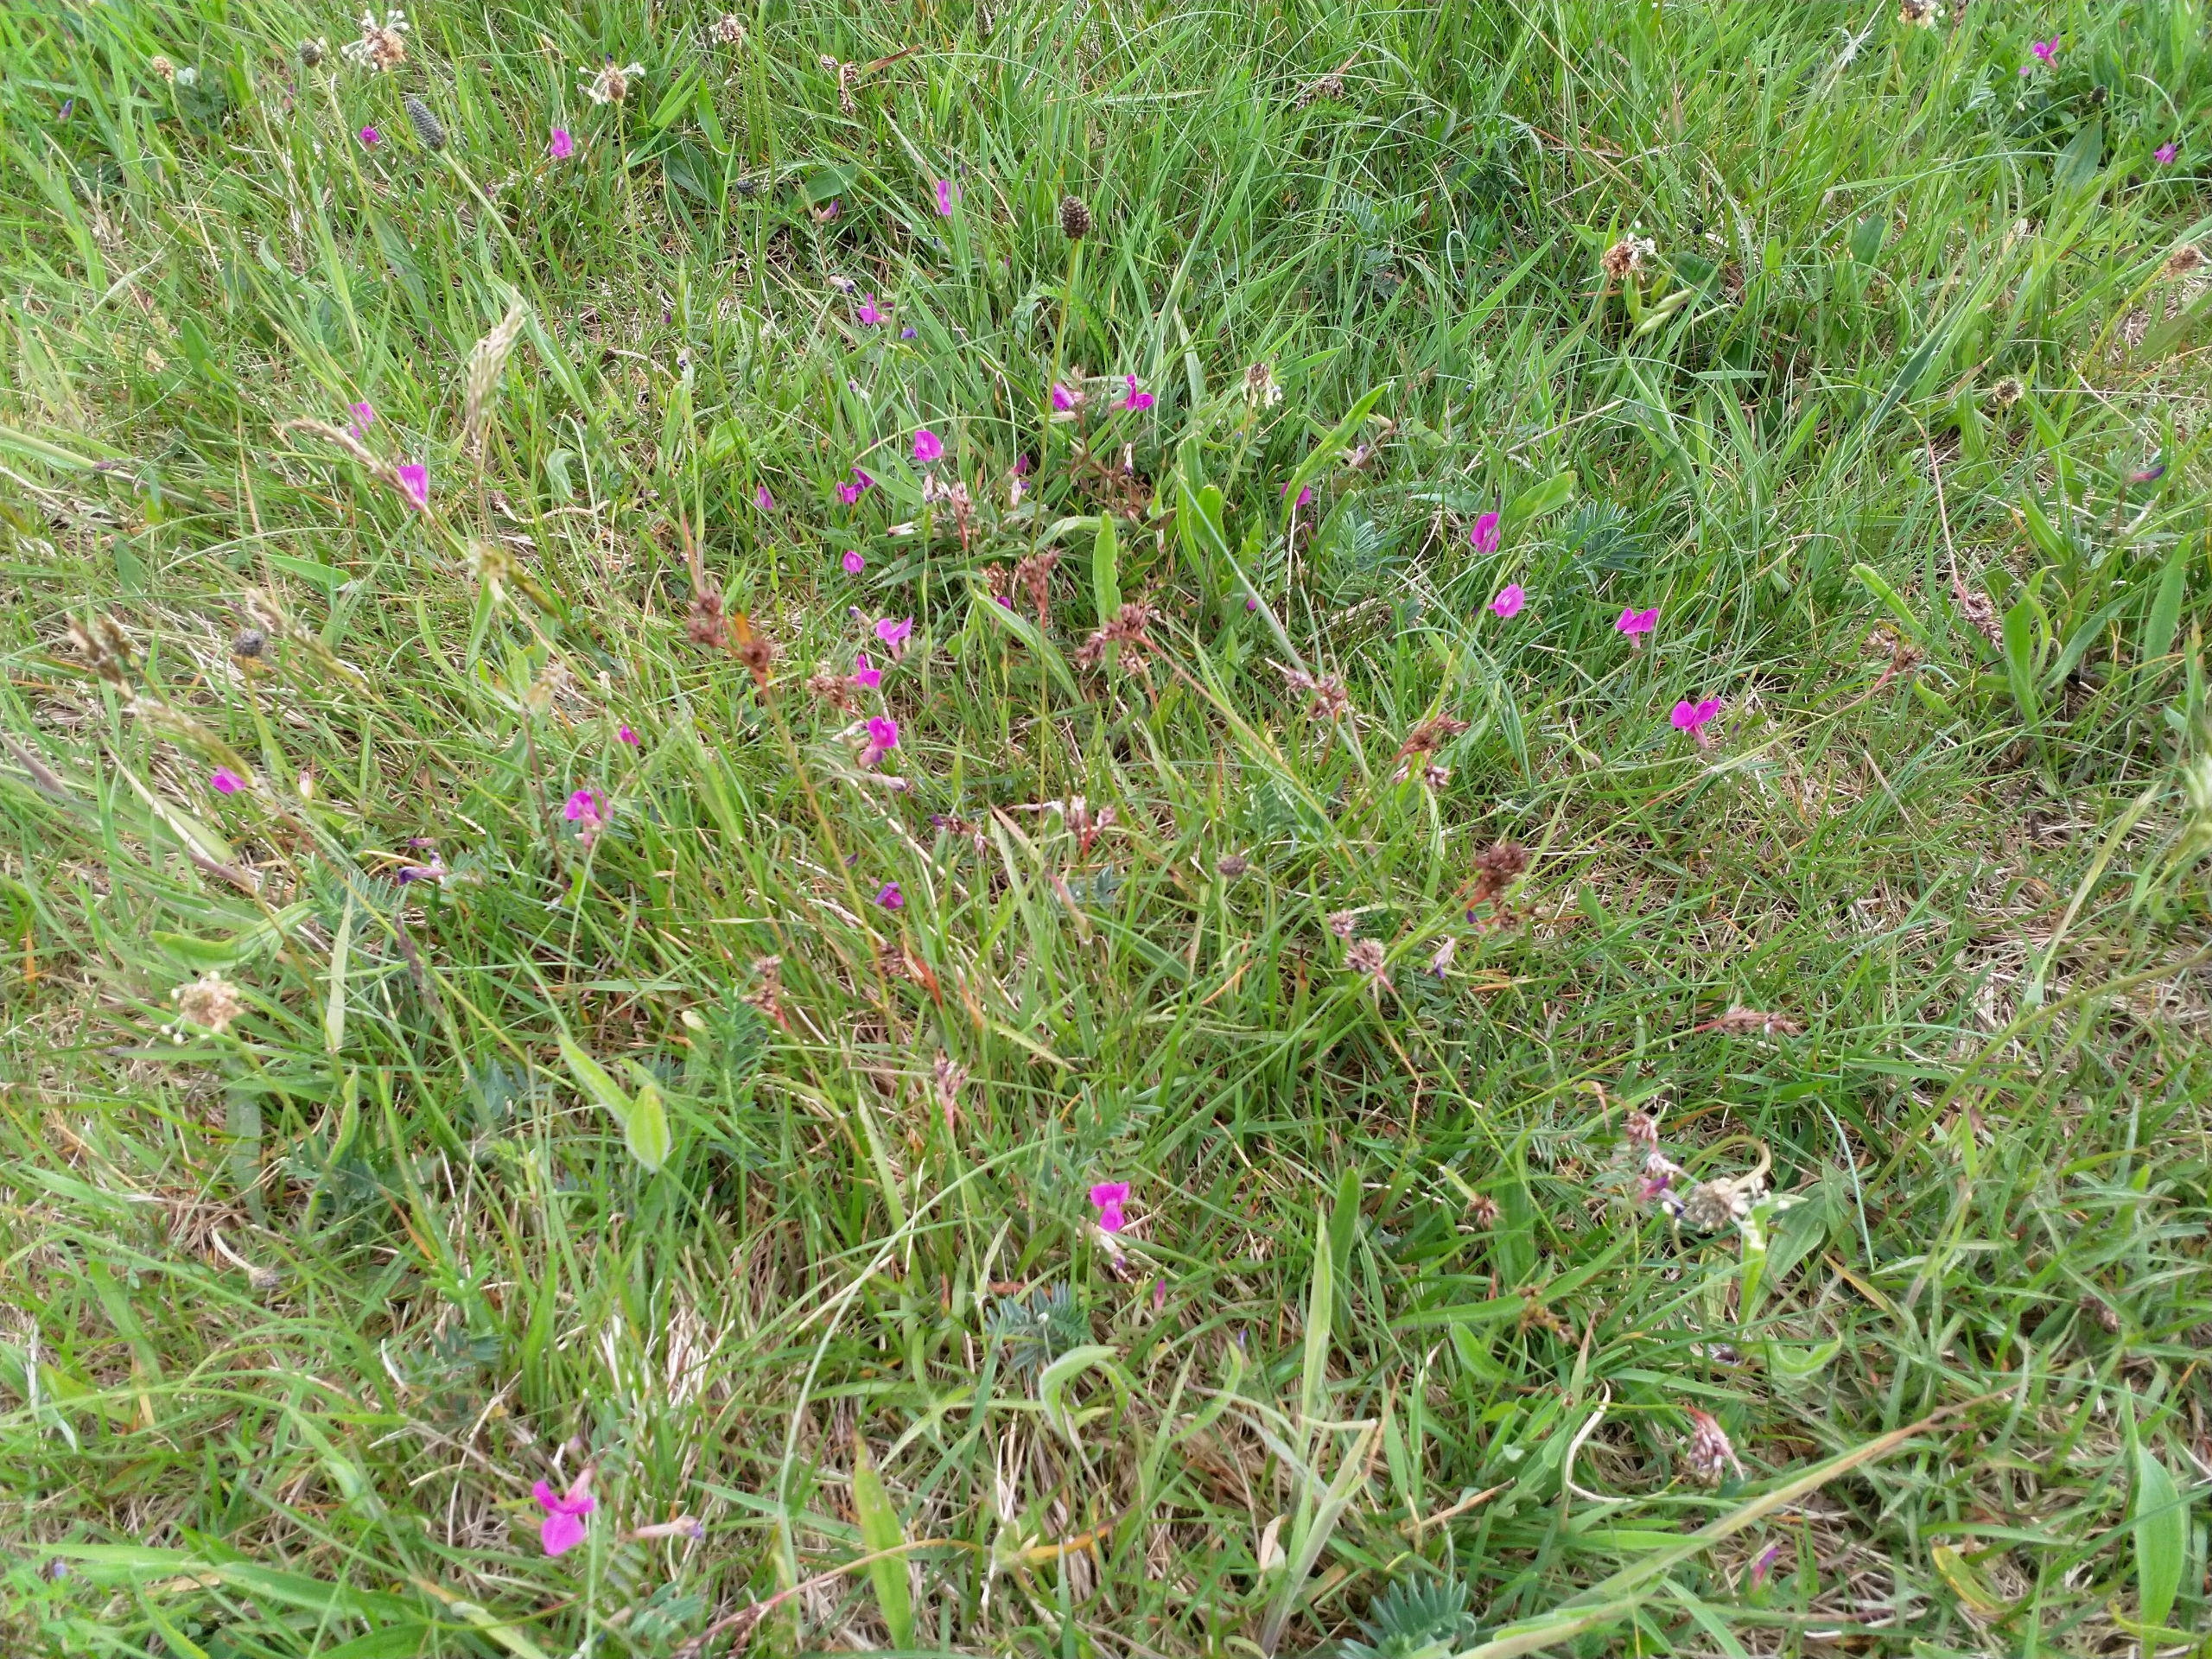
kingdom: Plantae
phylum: Tracheophyta
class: Magnoliopsida
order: Fabales
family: Fabaceae
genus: Vicia
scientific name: Vicia sativa
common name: Smalbladet vikke
